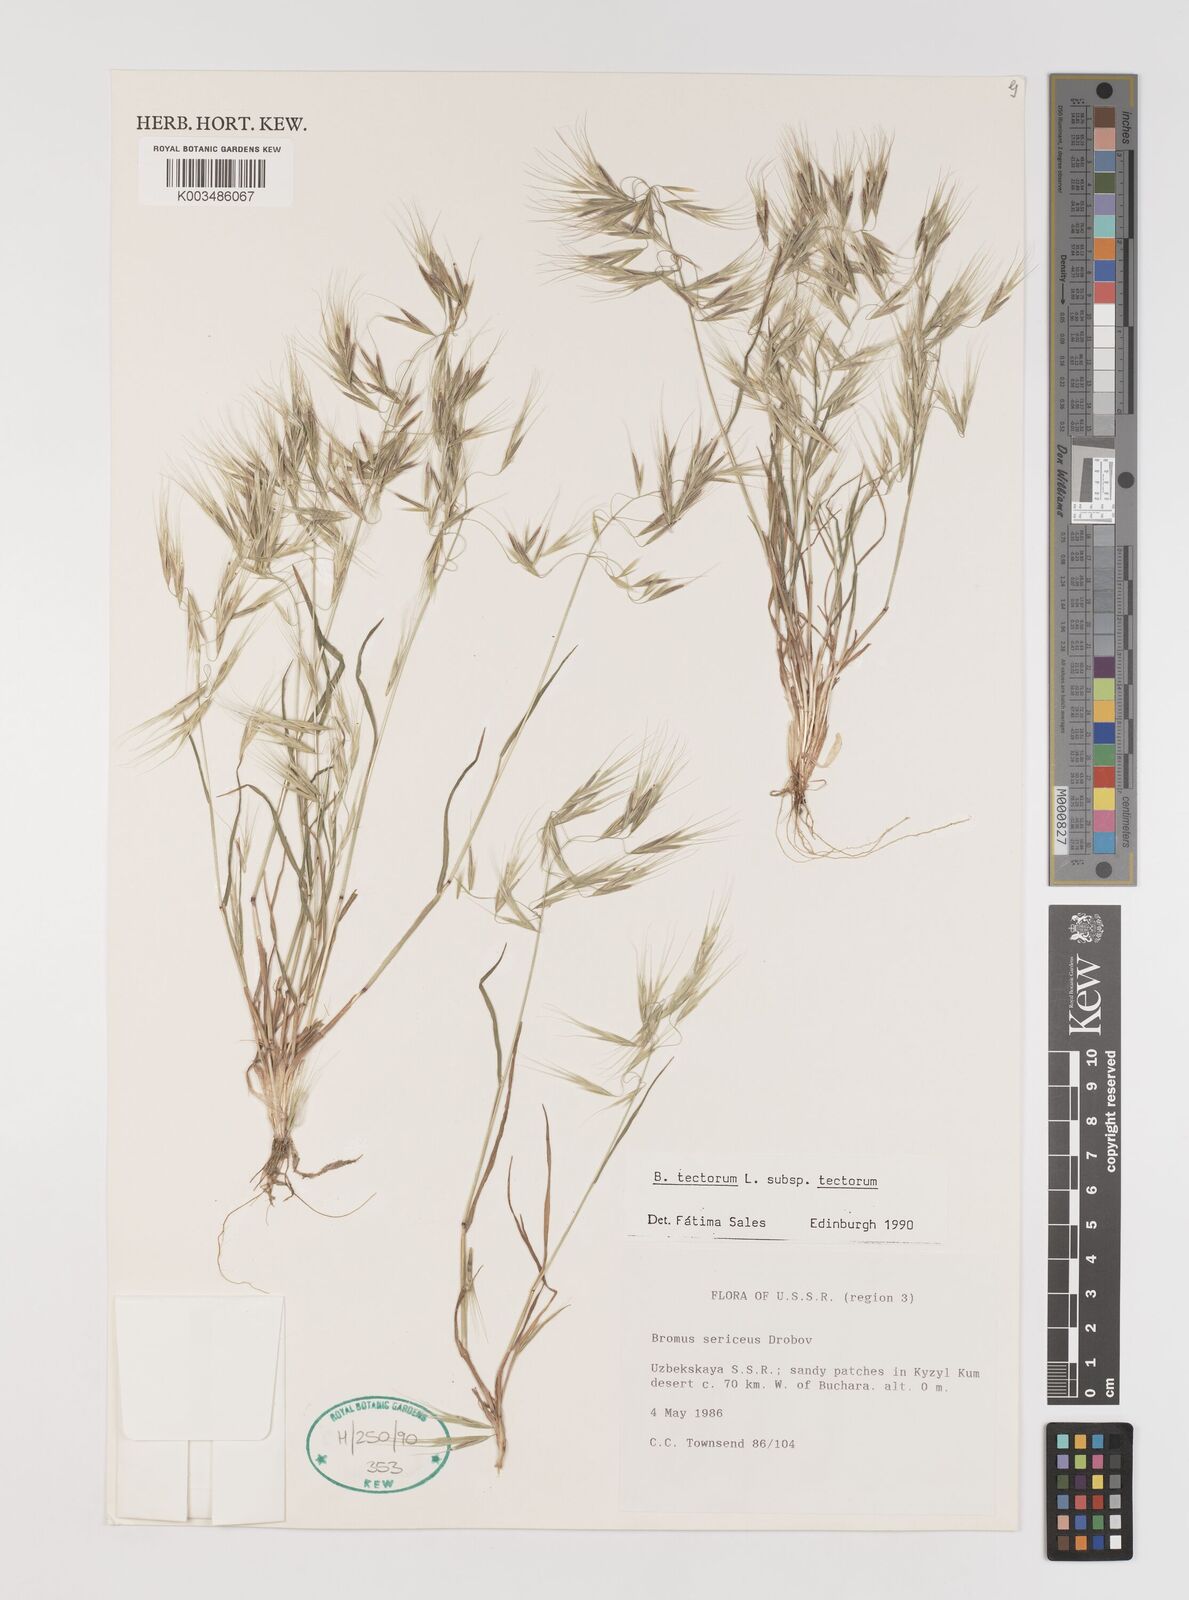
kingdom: Plantae
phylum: Tracheophyta
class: Liliopsida
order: Poales
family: Poaceae
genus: Bromus
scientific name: Bromus tectorum
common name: Cheatgrass
